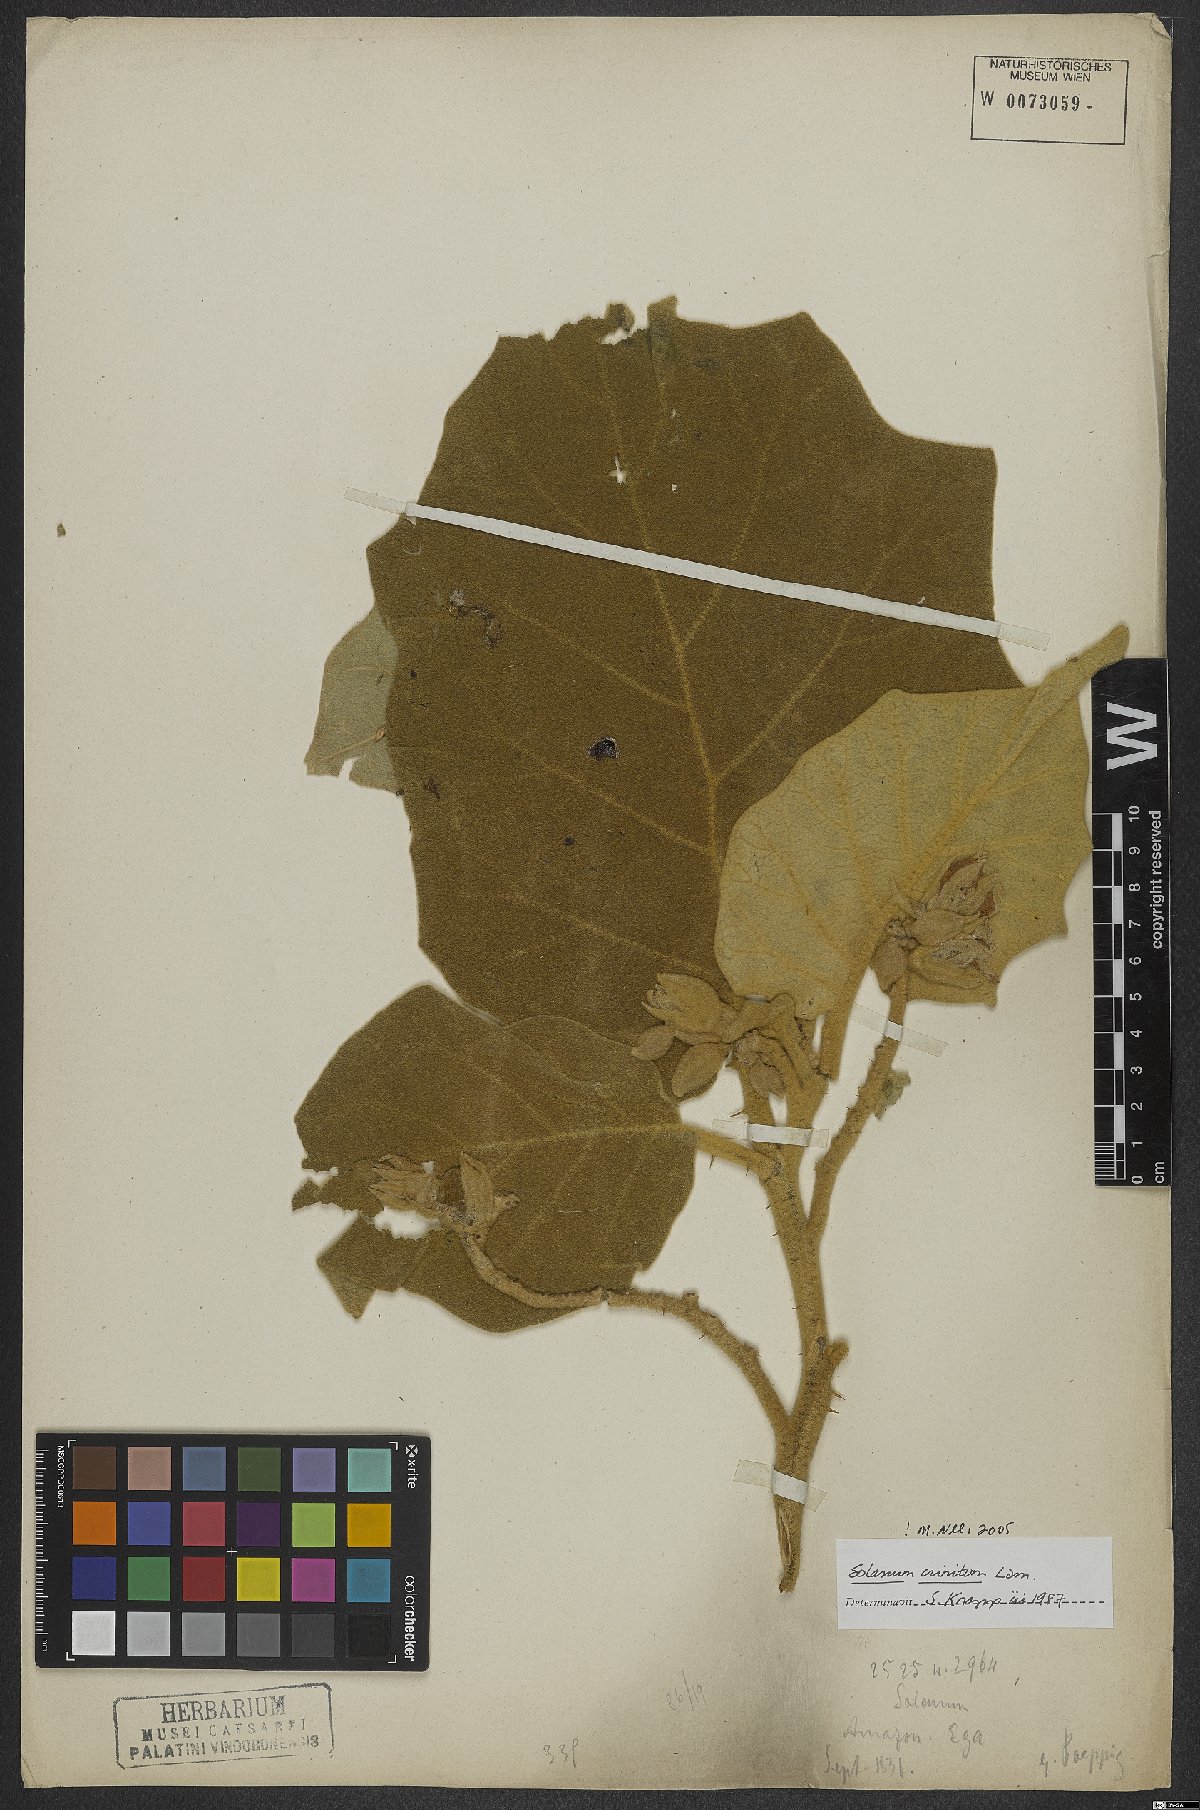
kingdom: Plantae
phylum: Tracheophyta
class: Magnoliopsida
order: Solanales
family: Solanaceae
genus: Solanum
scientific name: Solanum crinitum
